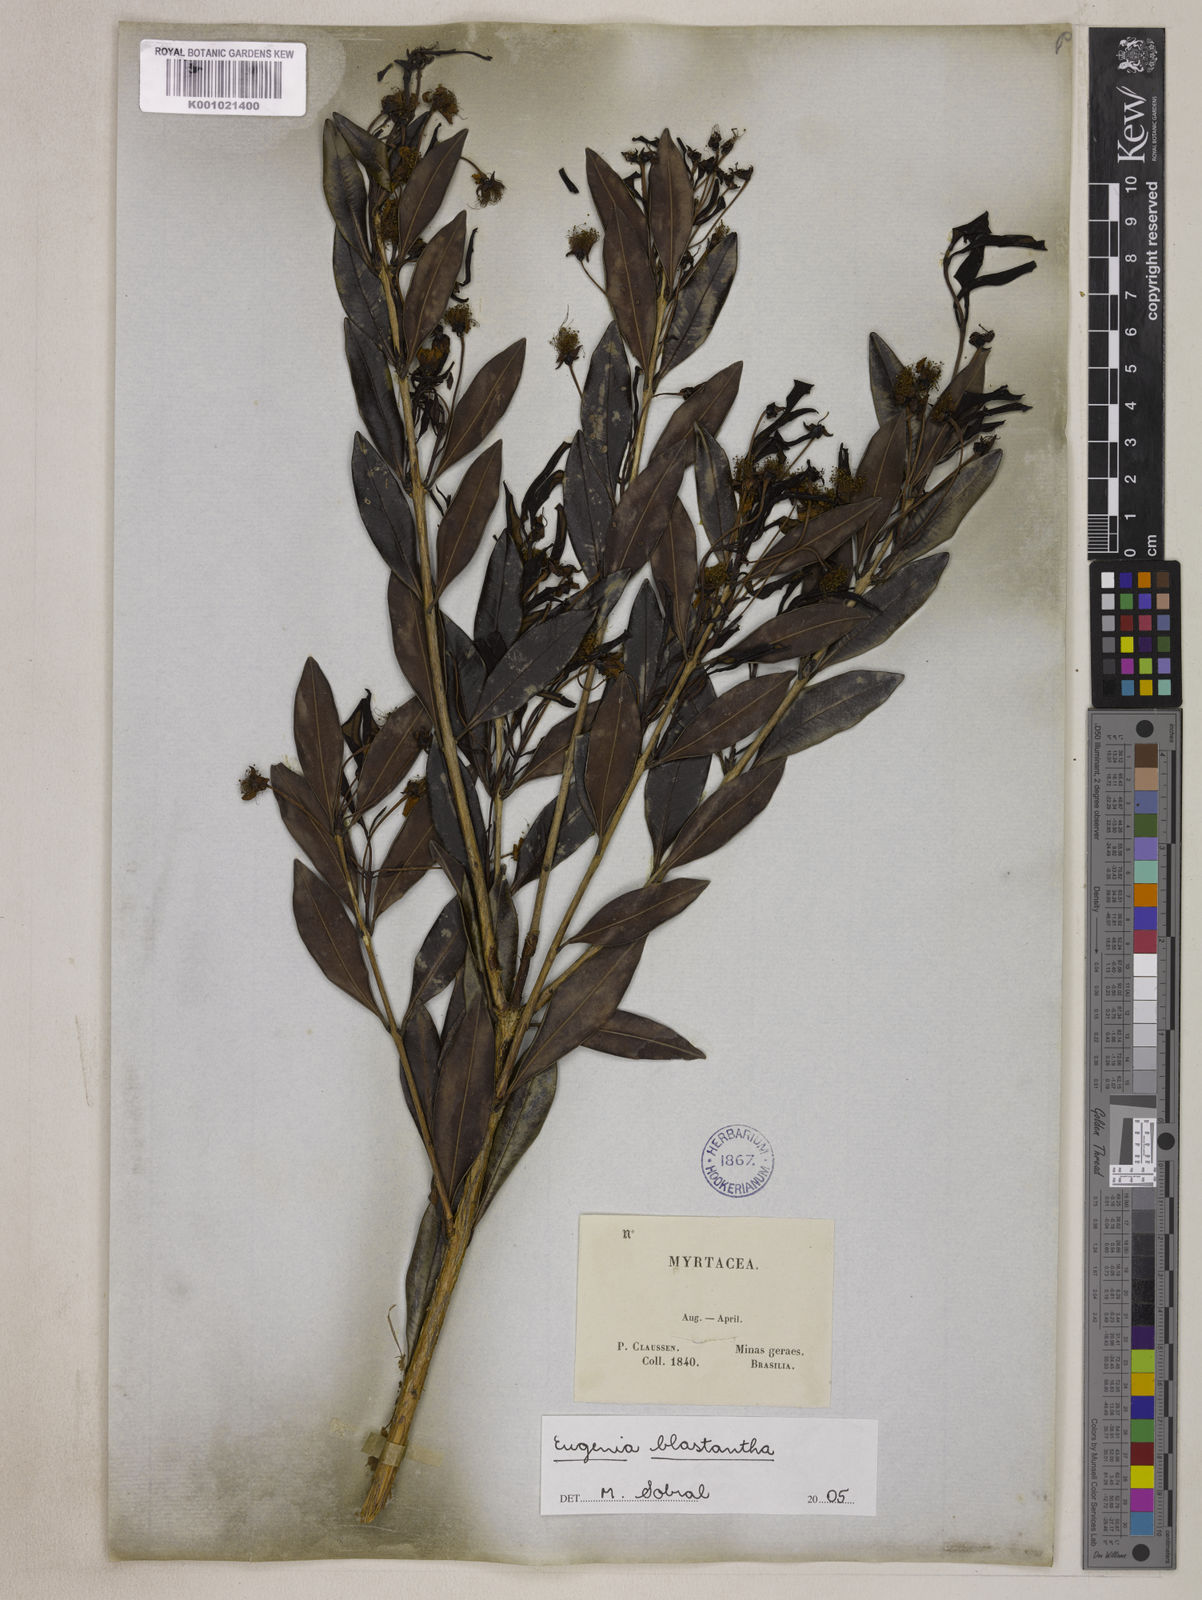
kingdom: Plantae
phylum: Tracheophyta
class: Magnoliopsida
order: Myrtales
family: Myrtaceae
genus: Eugenia
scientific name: Eugenia blastantha
